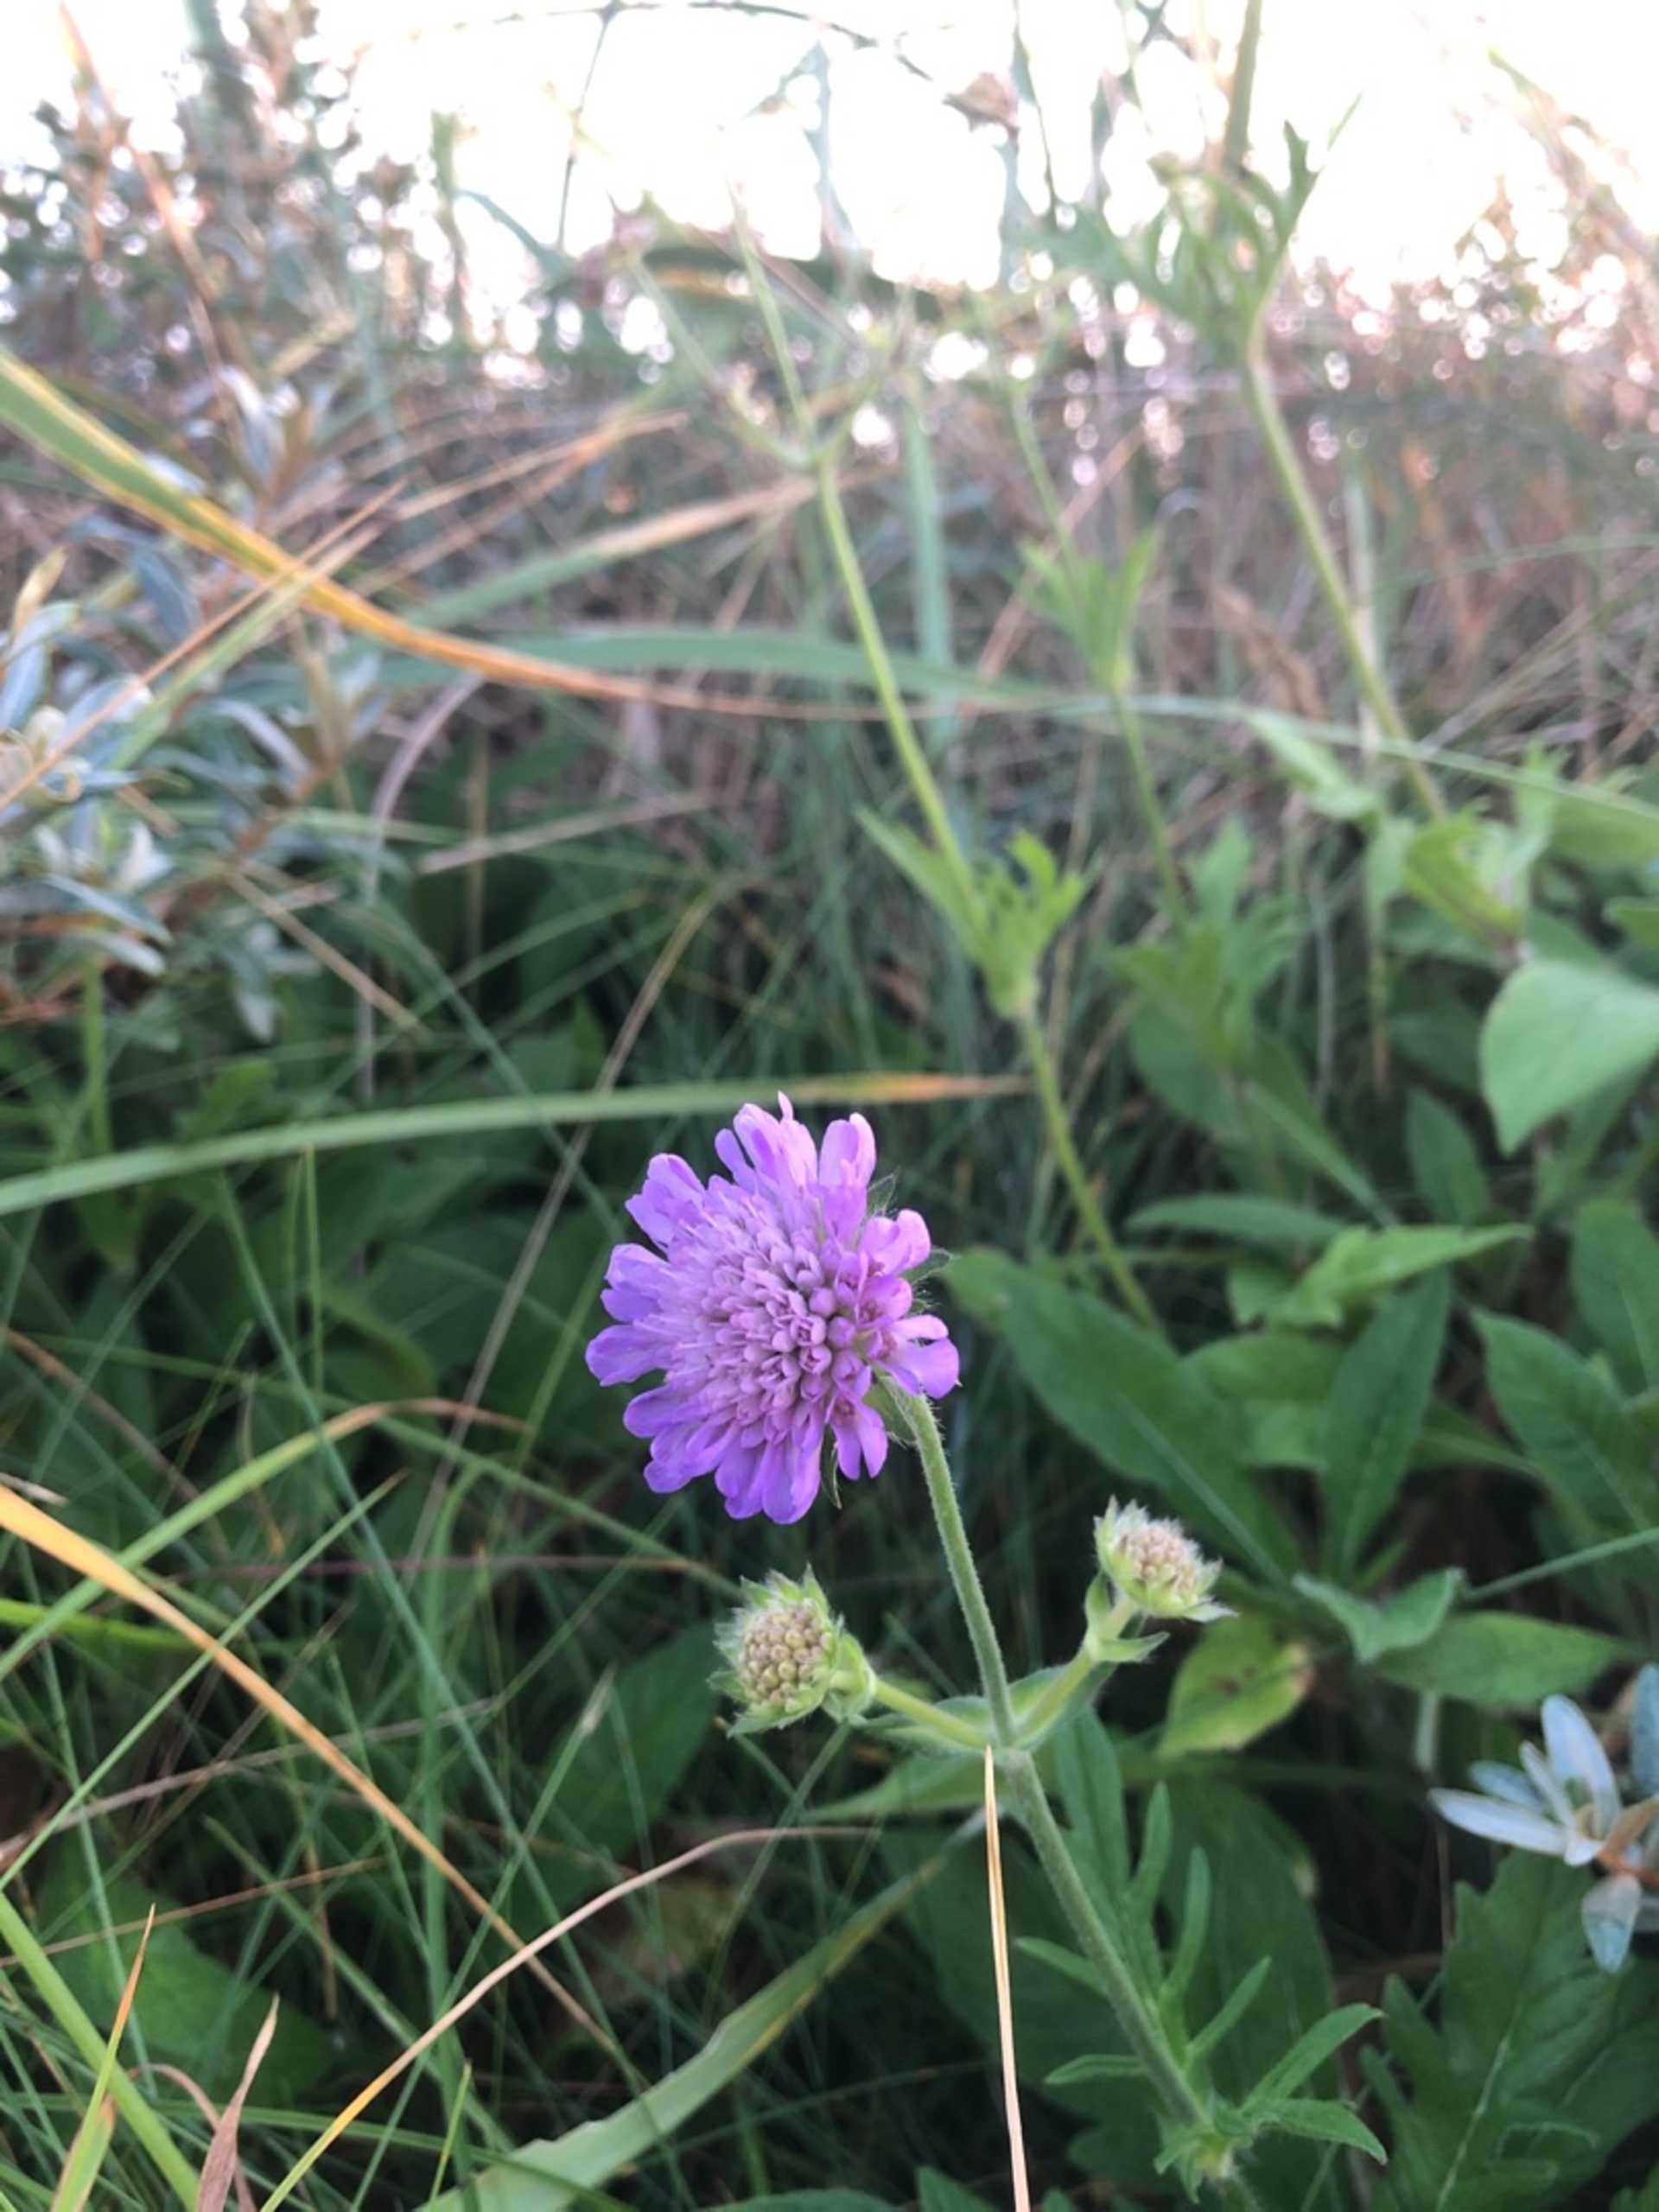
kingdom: Plantae
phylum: Tracheophyta
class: Magnoliopsida
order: Dipsacales
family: Caprifoliaceae
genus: Knautia
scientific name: Knautia arvensis
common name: Blåhat
